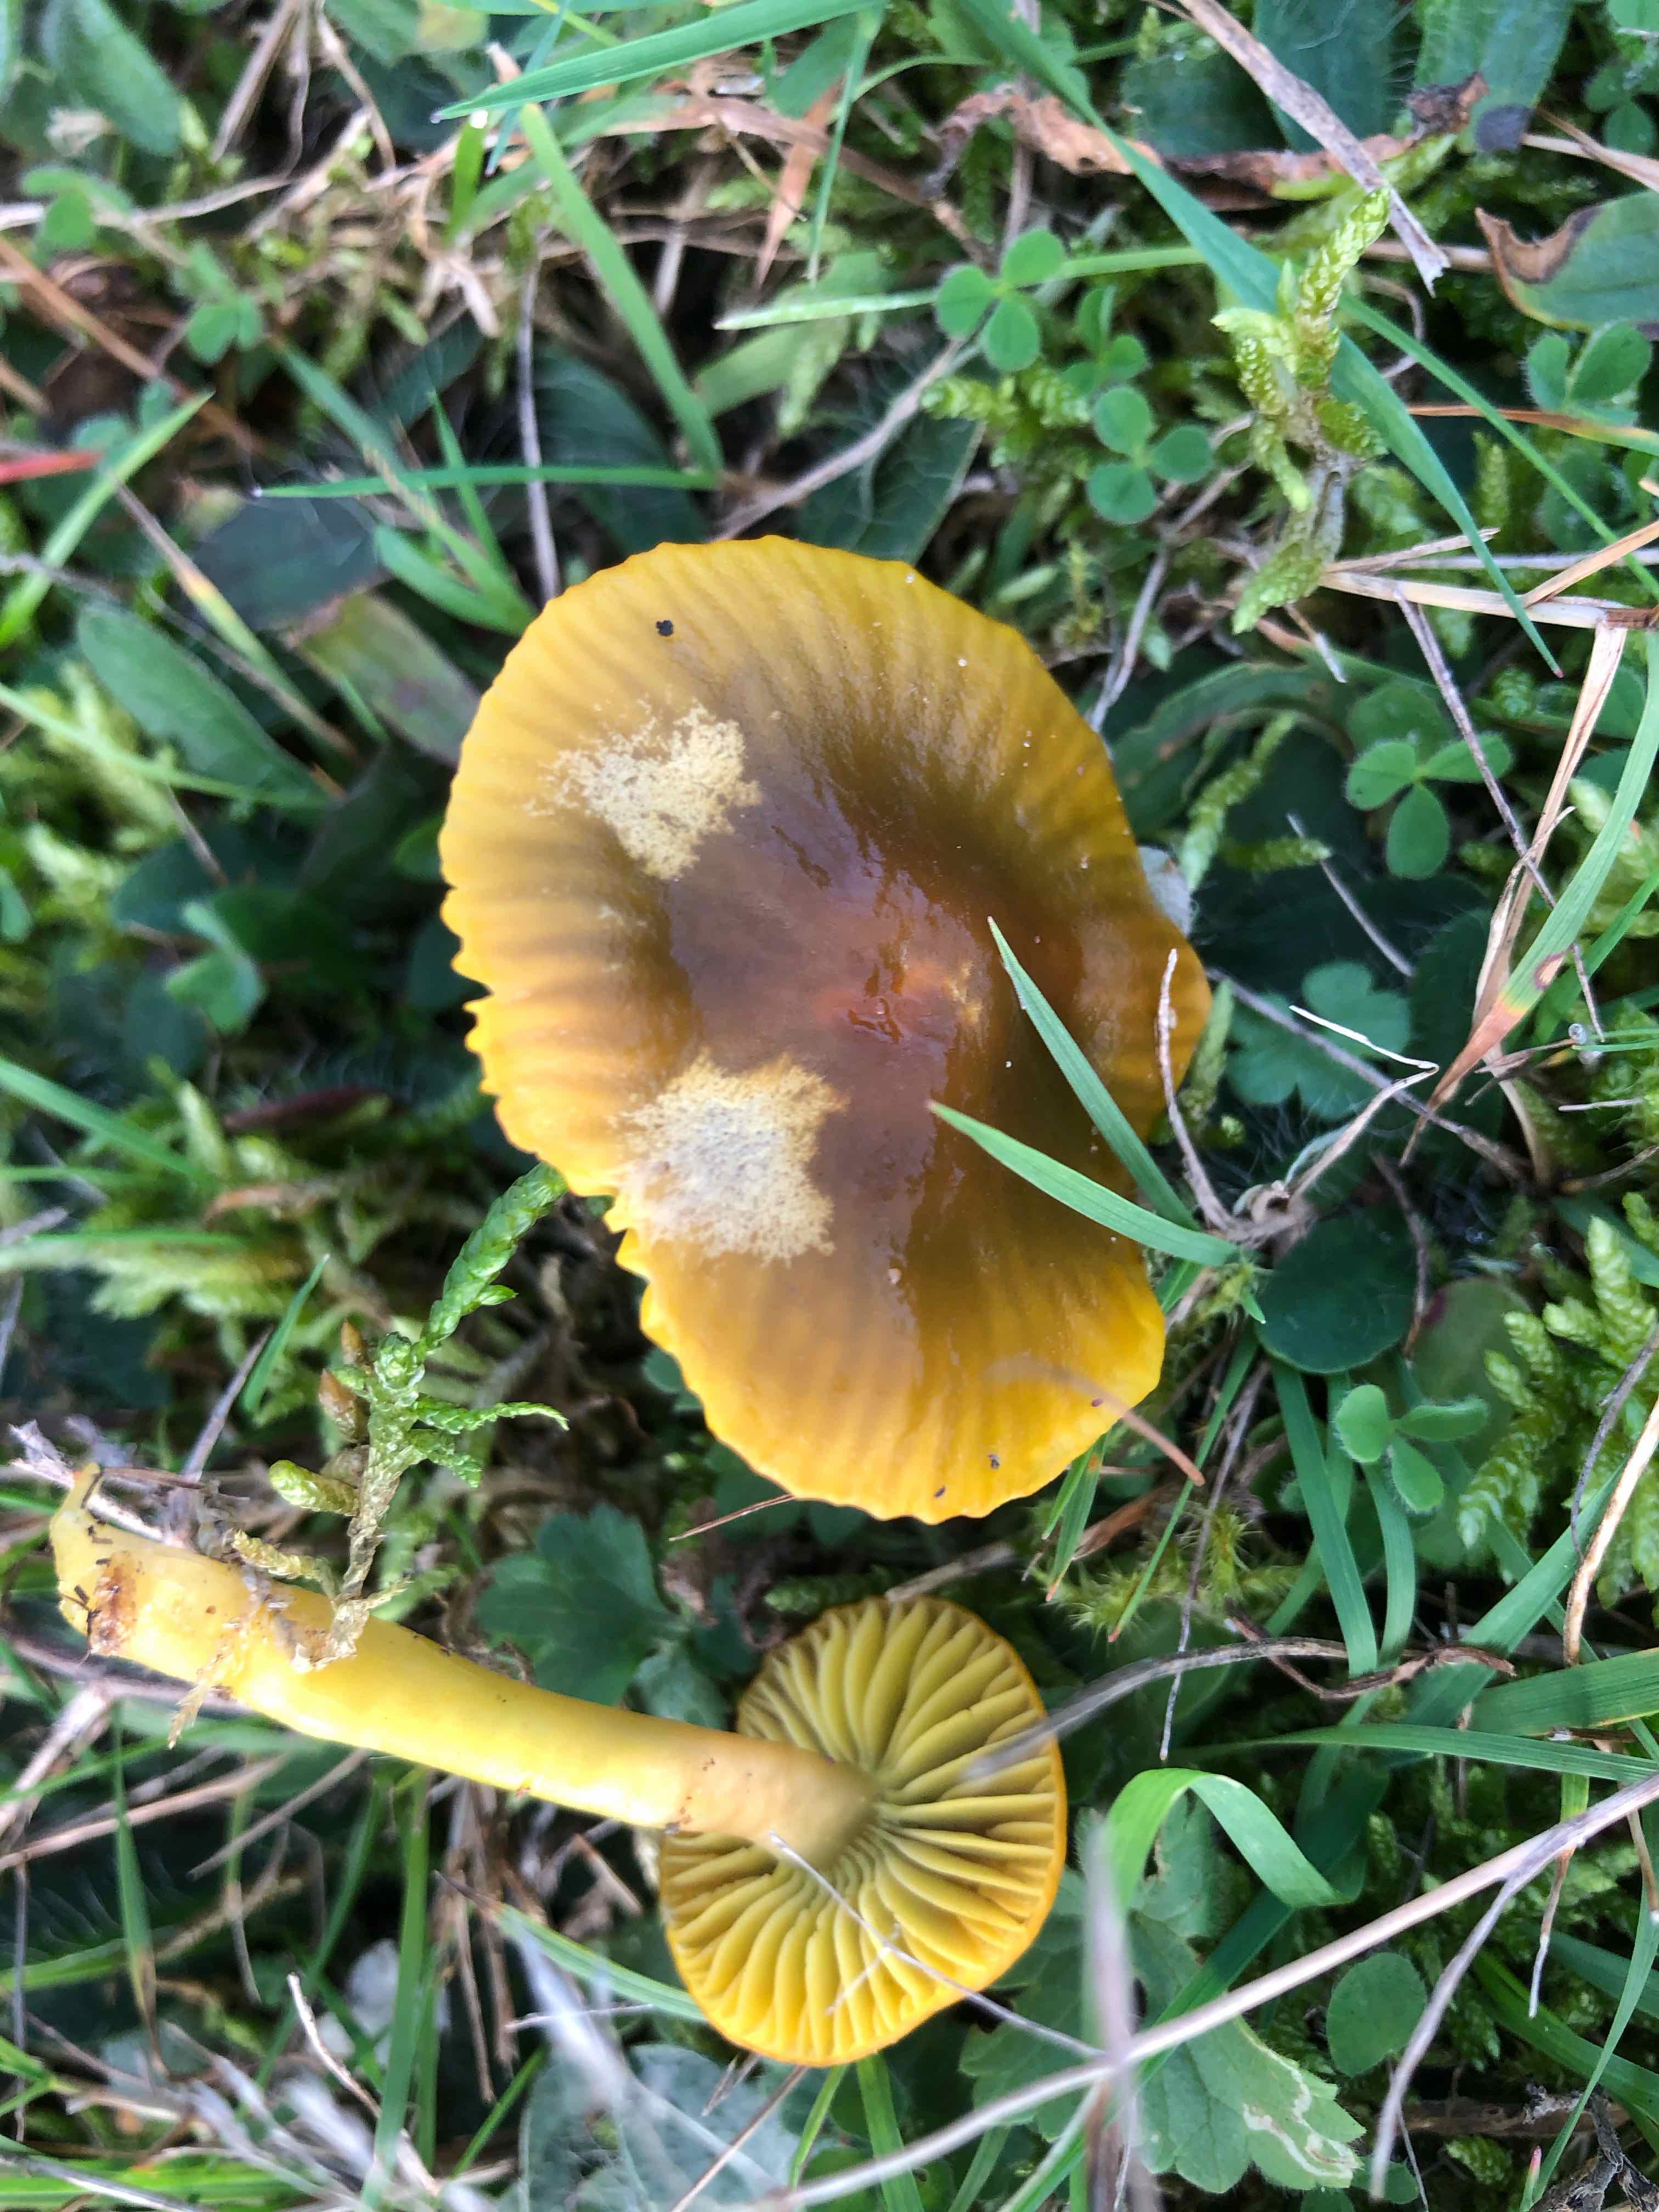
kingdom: Fungi
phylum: Basidiomycota
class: Agaricomycetes
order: Agaricales
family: Hygrophoraceae
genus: Gliophorus
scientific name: Gliophorus psittacinus
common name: papegøje-vokshat
